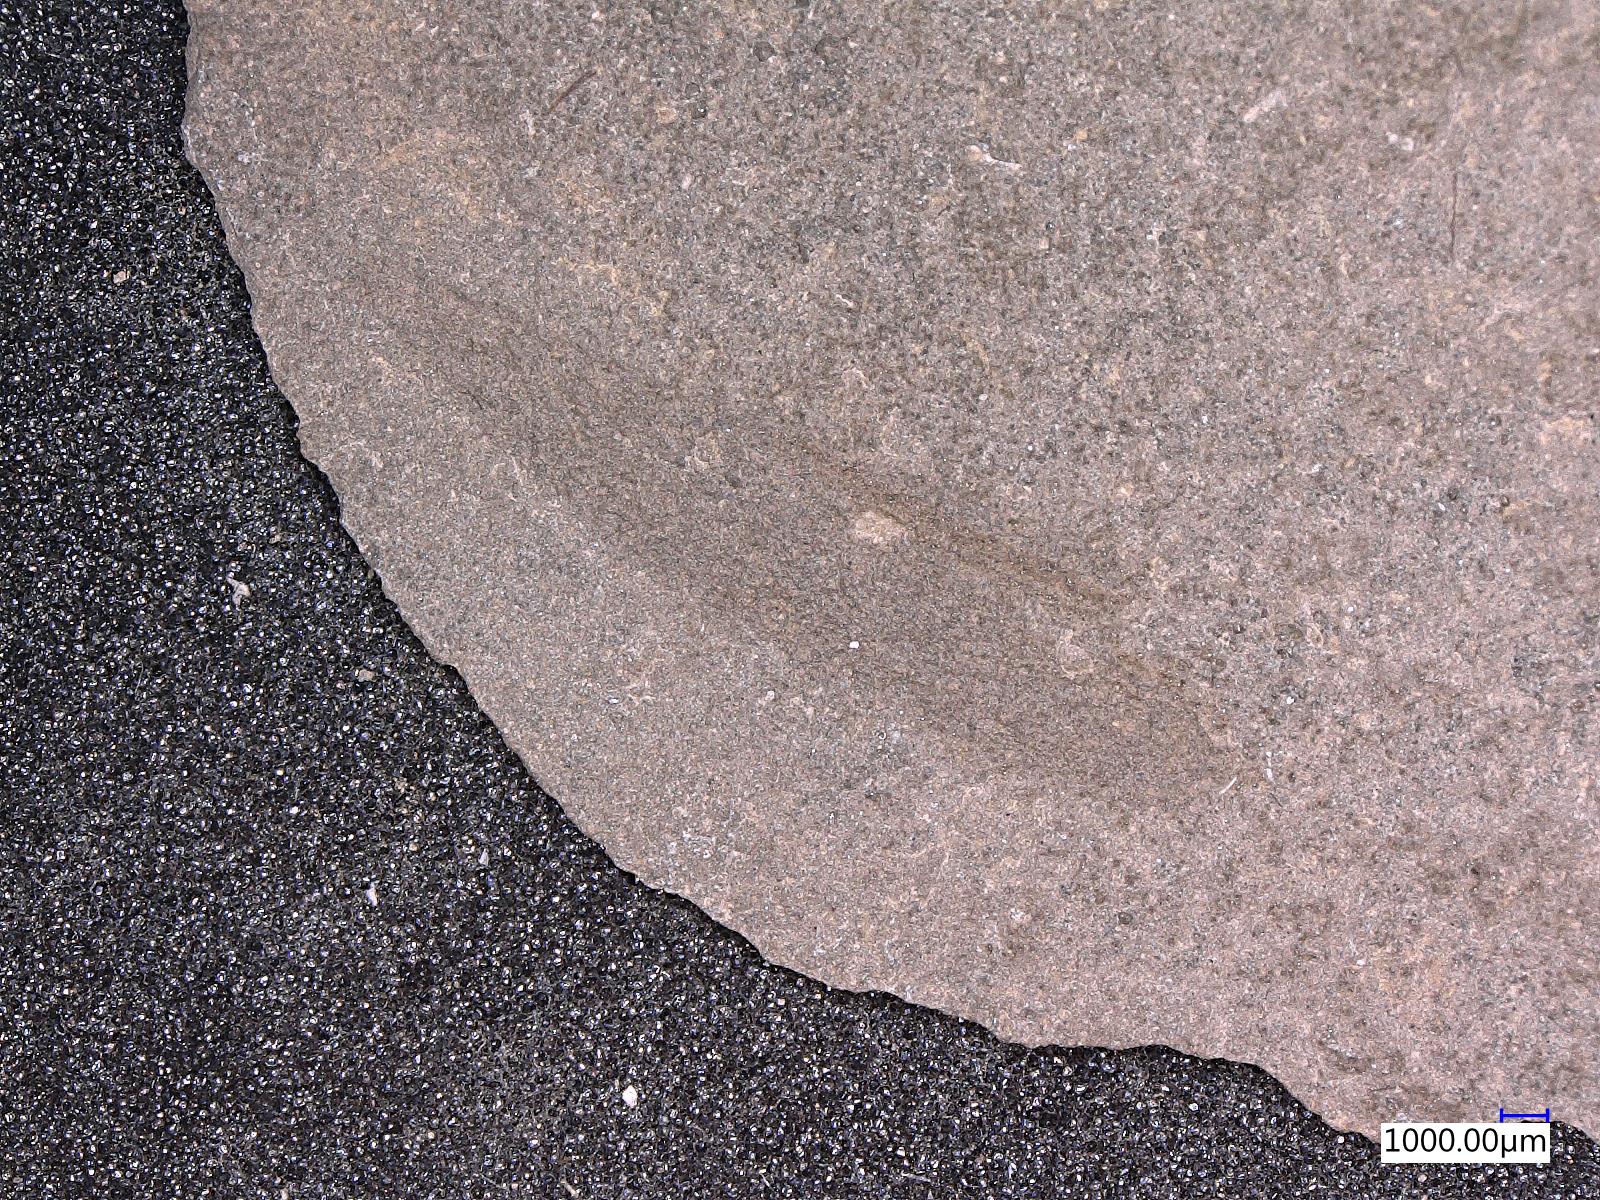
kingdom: Animalia
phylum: Arthropoda
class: Insecta
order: Blattodea
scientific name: Blattodea
